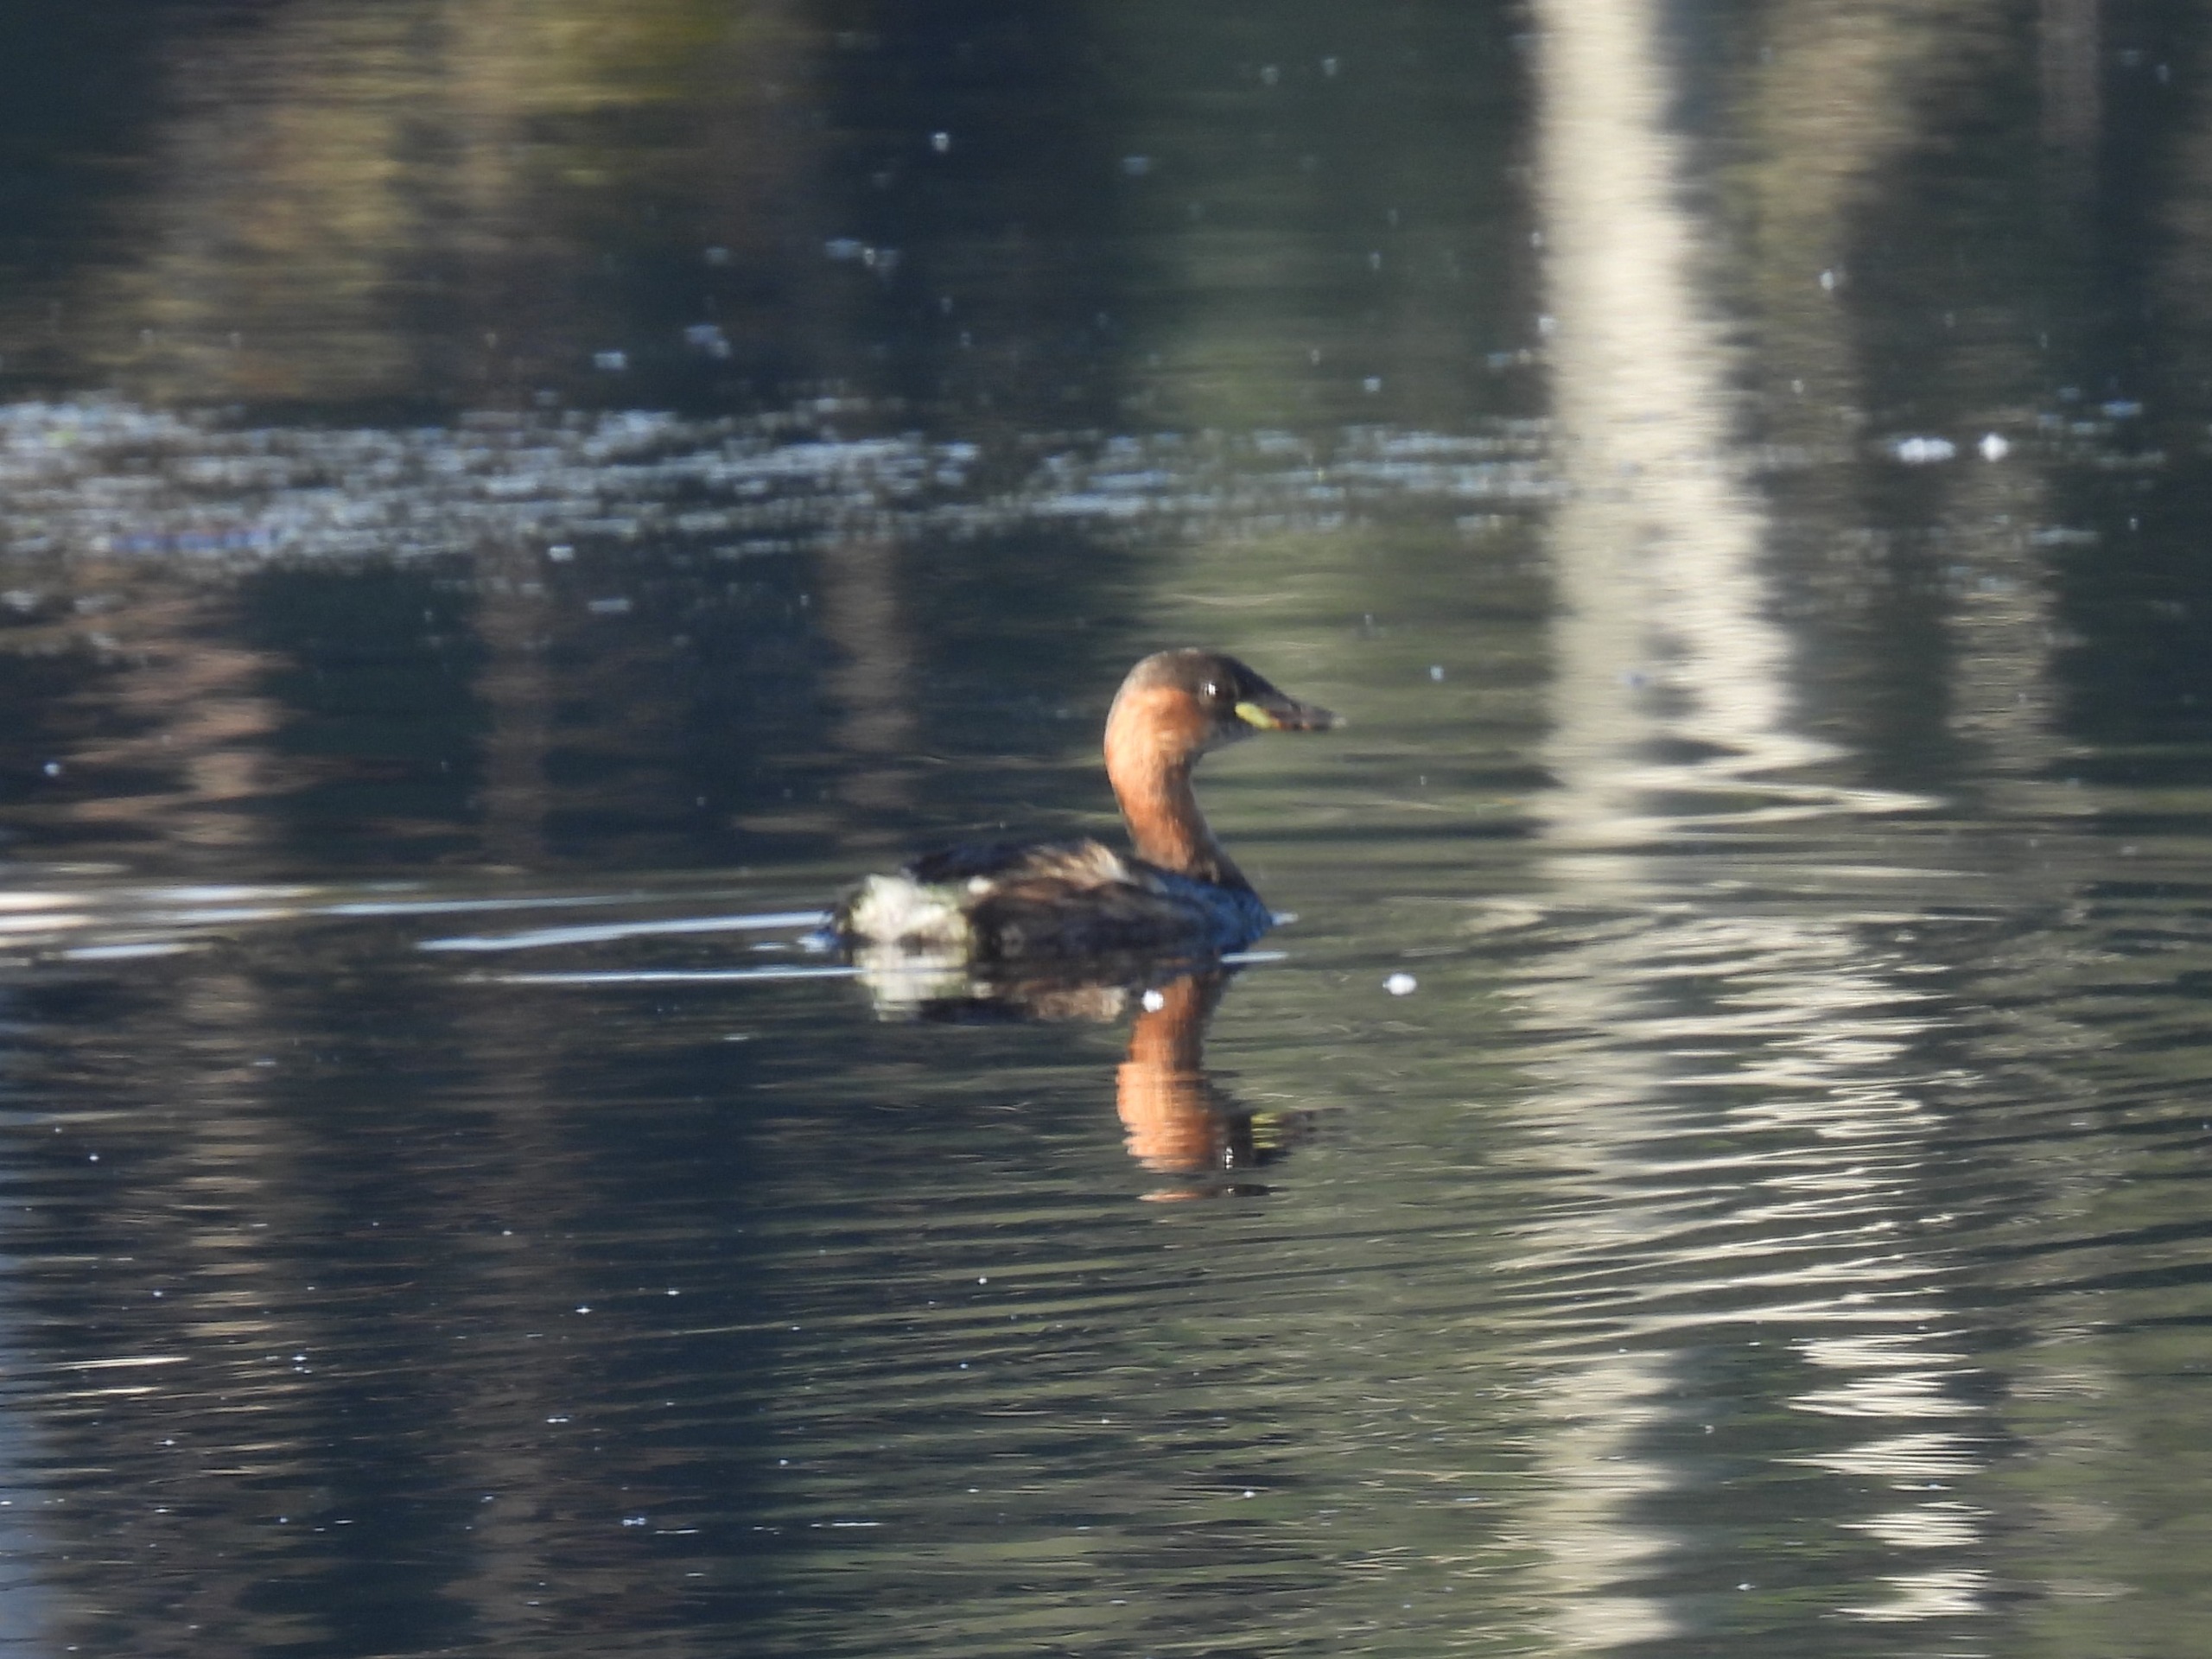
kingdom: Animalia
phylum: Chordata
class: Aves
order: Podicipediformes
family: Podicipedidae
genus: Tachybaptus
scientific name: Tachybaptus ruficollis
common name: Lille lappedykker
